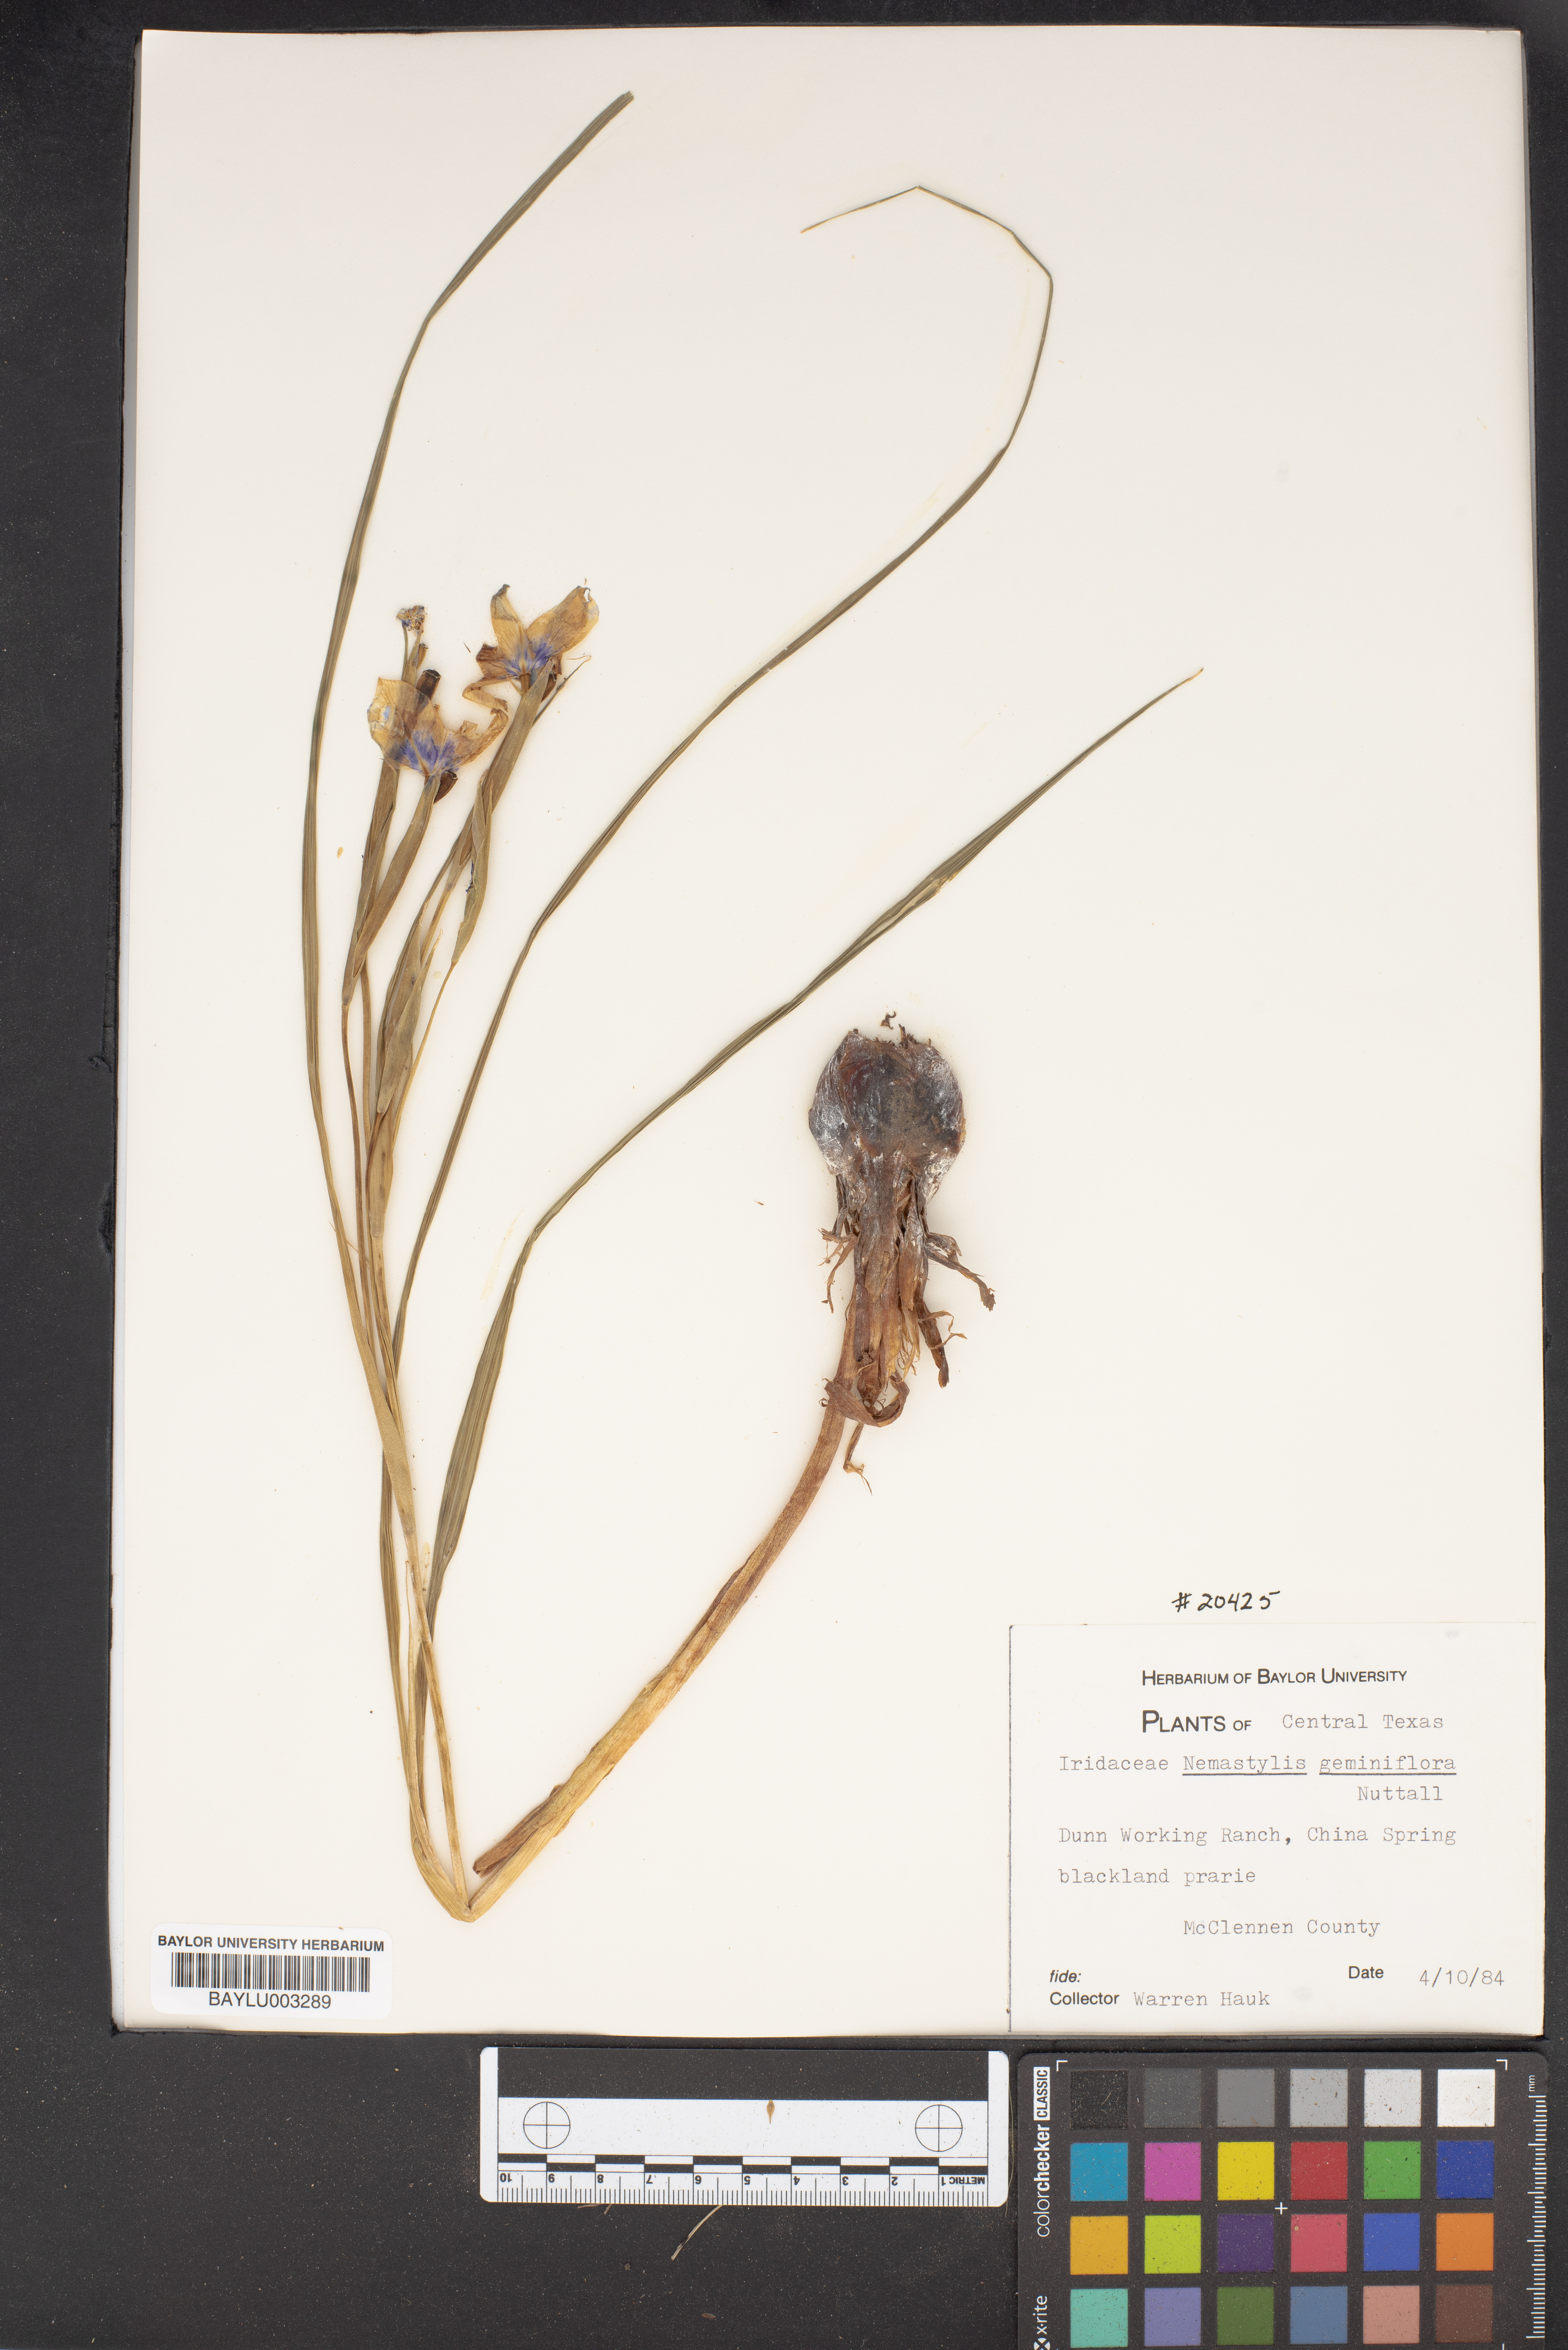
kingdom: Plantae
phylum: Tracheophyta
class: Liliopsida
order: Asparagales
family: Iridaceae
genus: Nemastylis
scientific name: Nemastylis geminiflora
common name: Prairie celestial
